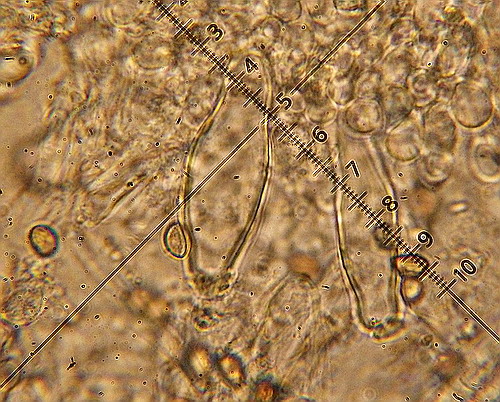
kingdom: Fungi
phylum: Basidiomycota
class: Agaricomycetes
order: Agaricales
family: Inocybaceae
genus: Inocybe
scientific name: Inocybe
